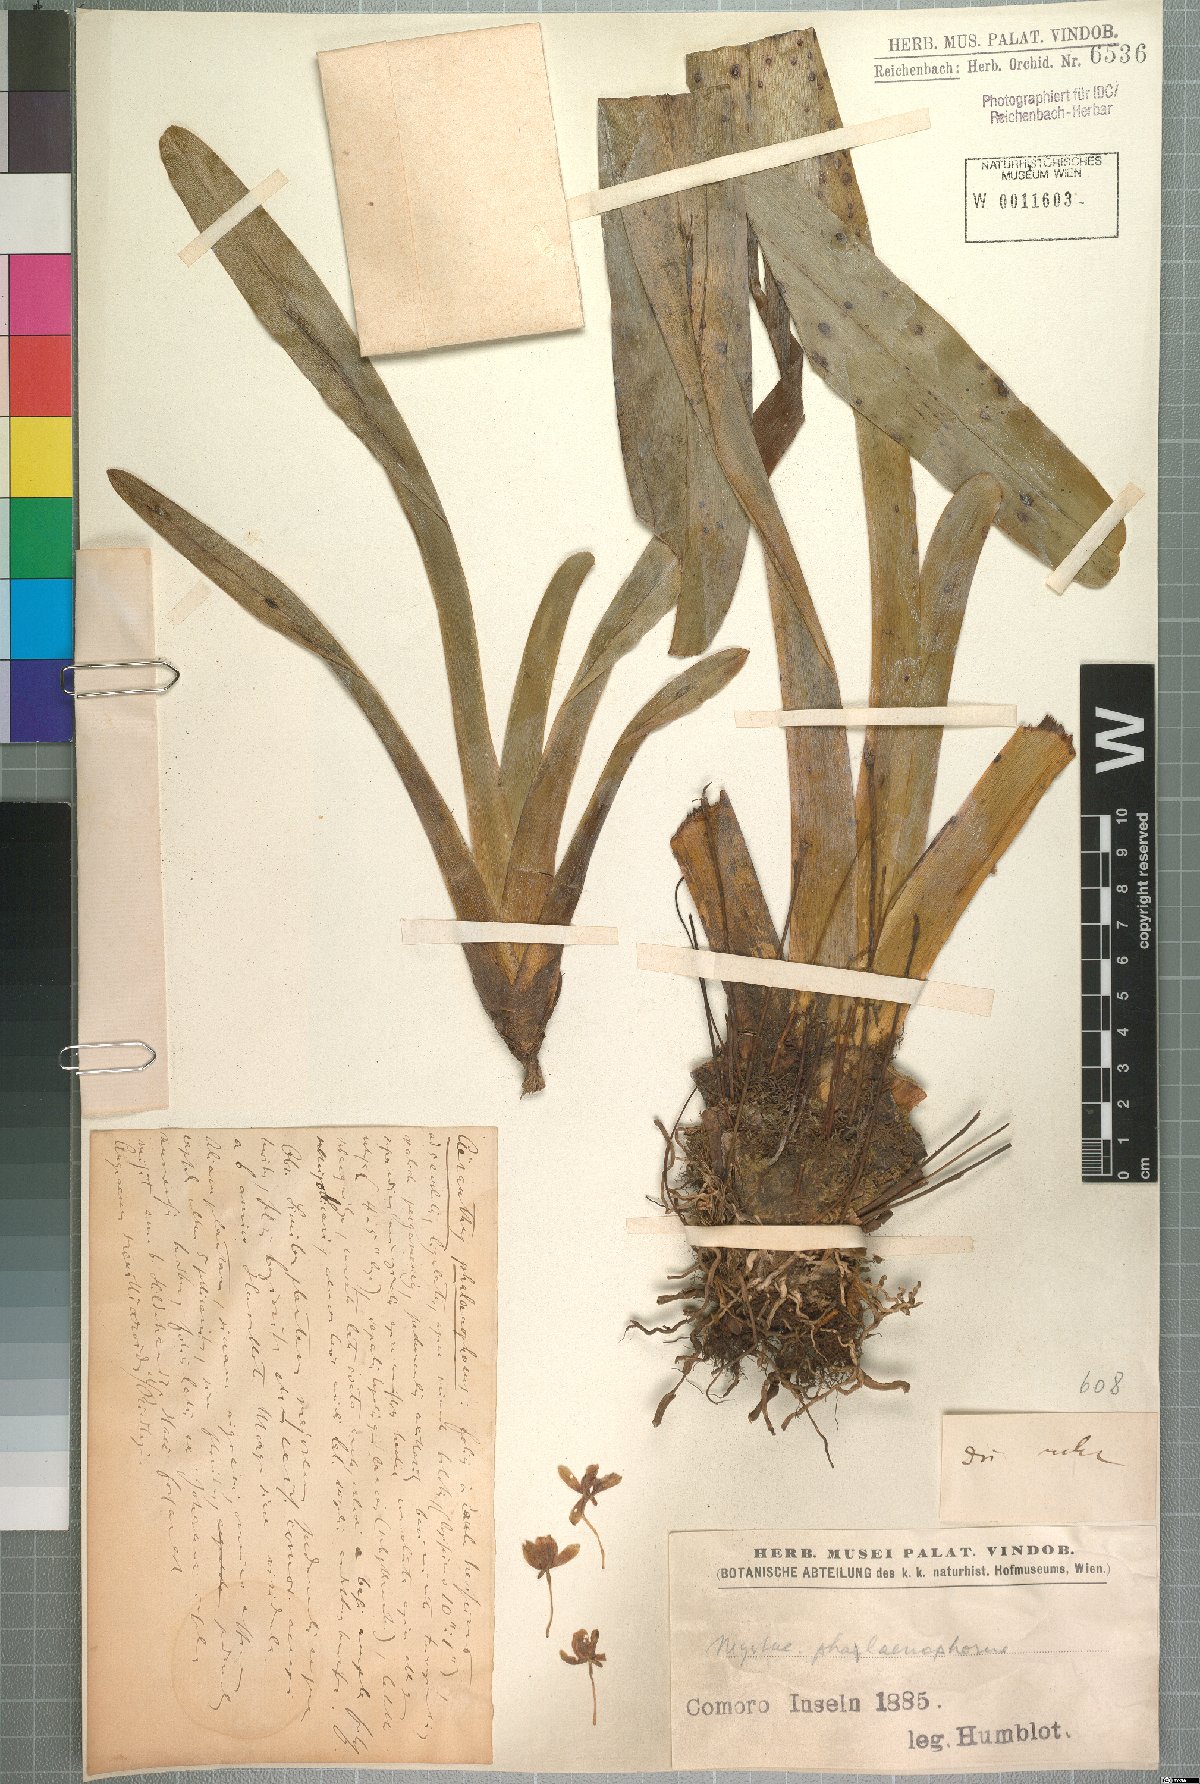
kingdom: Plantae
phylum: Tracheophyta
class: Liliopsida
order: Asparagales
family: Orchidaceae
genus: Jumellea
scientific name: Jumellea arachnantha
